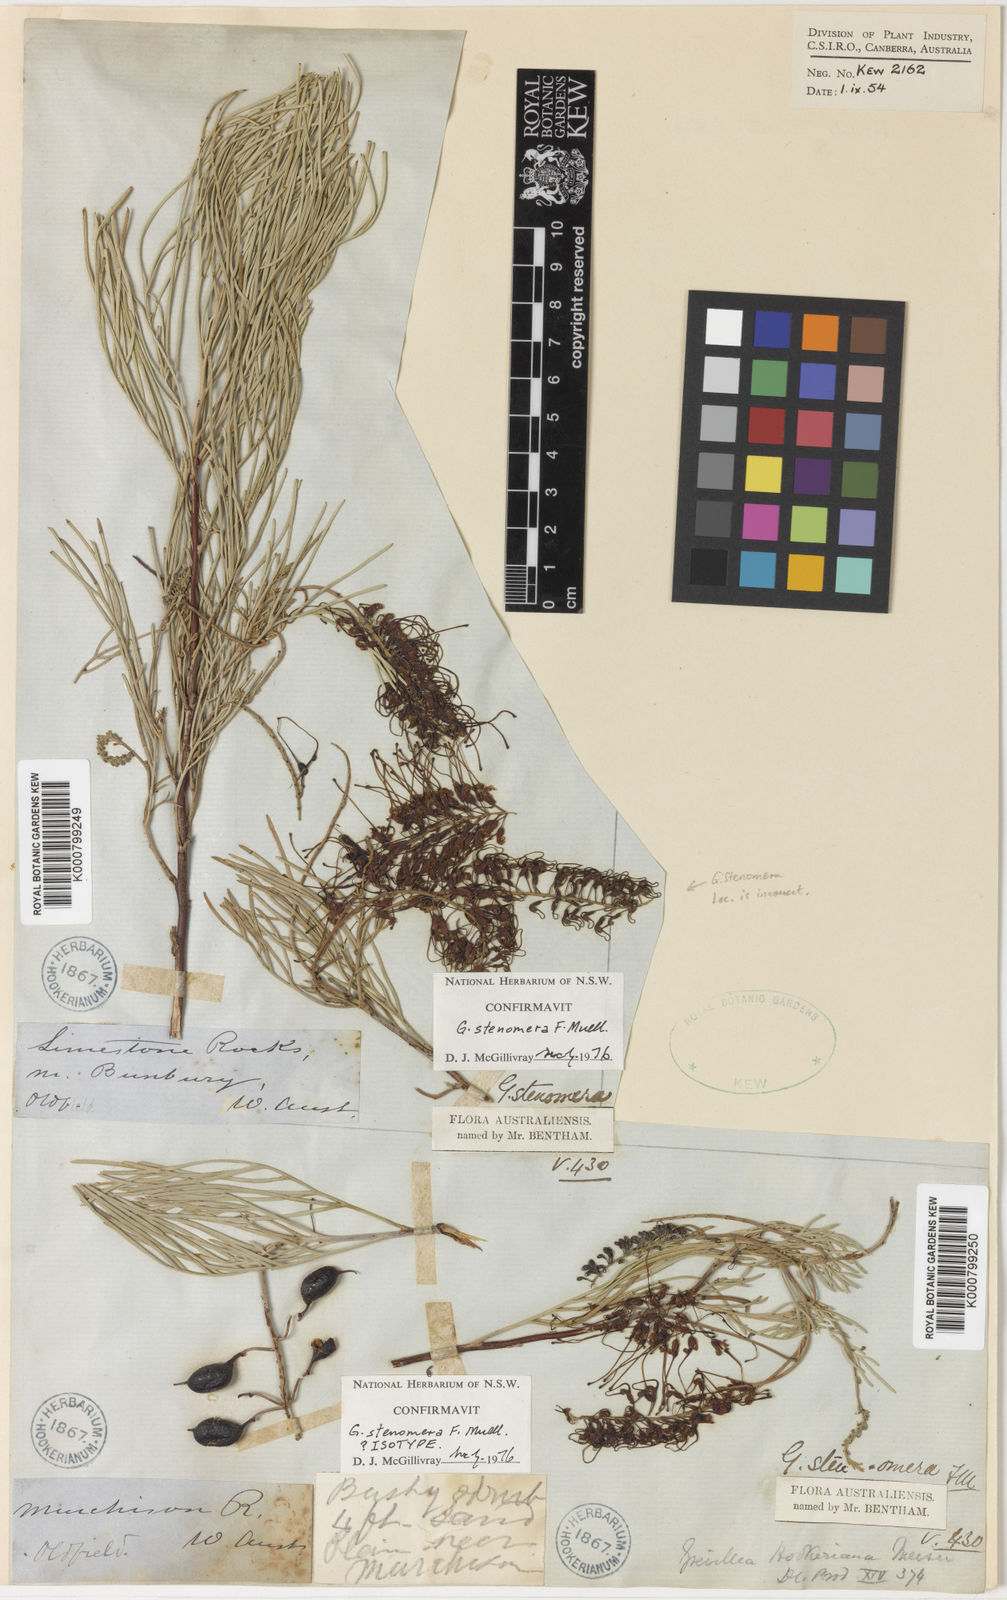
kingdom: Plantae
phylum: Tracheophyta
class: Magnoliopsida
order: Proteales
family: Proteaceae
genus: Grevillea
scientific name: Grevillea stenomera
